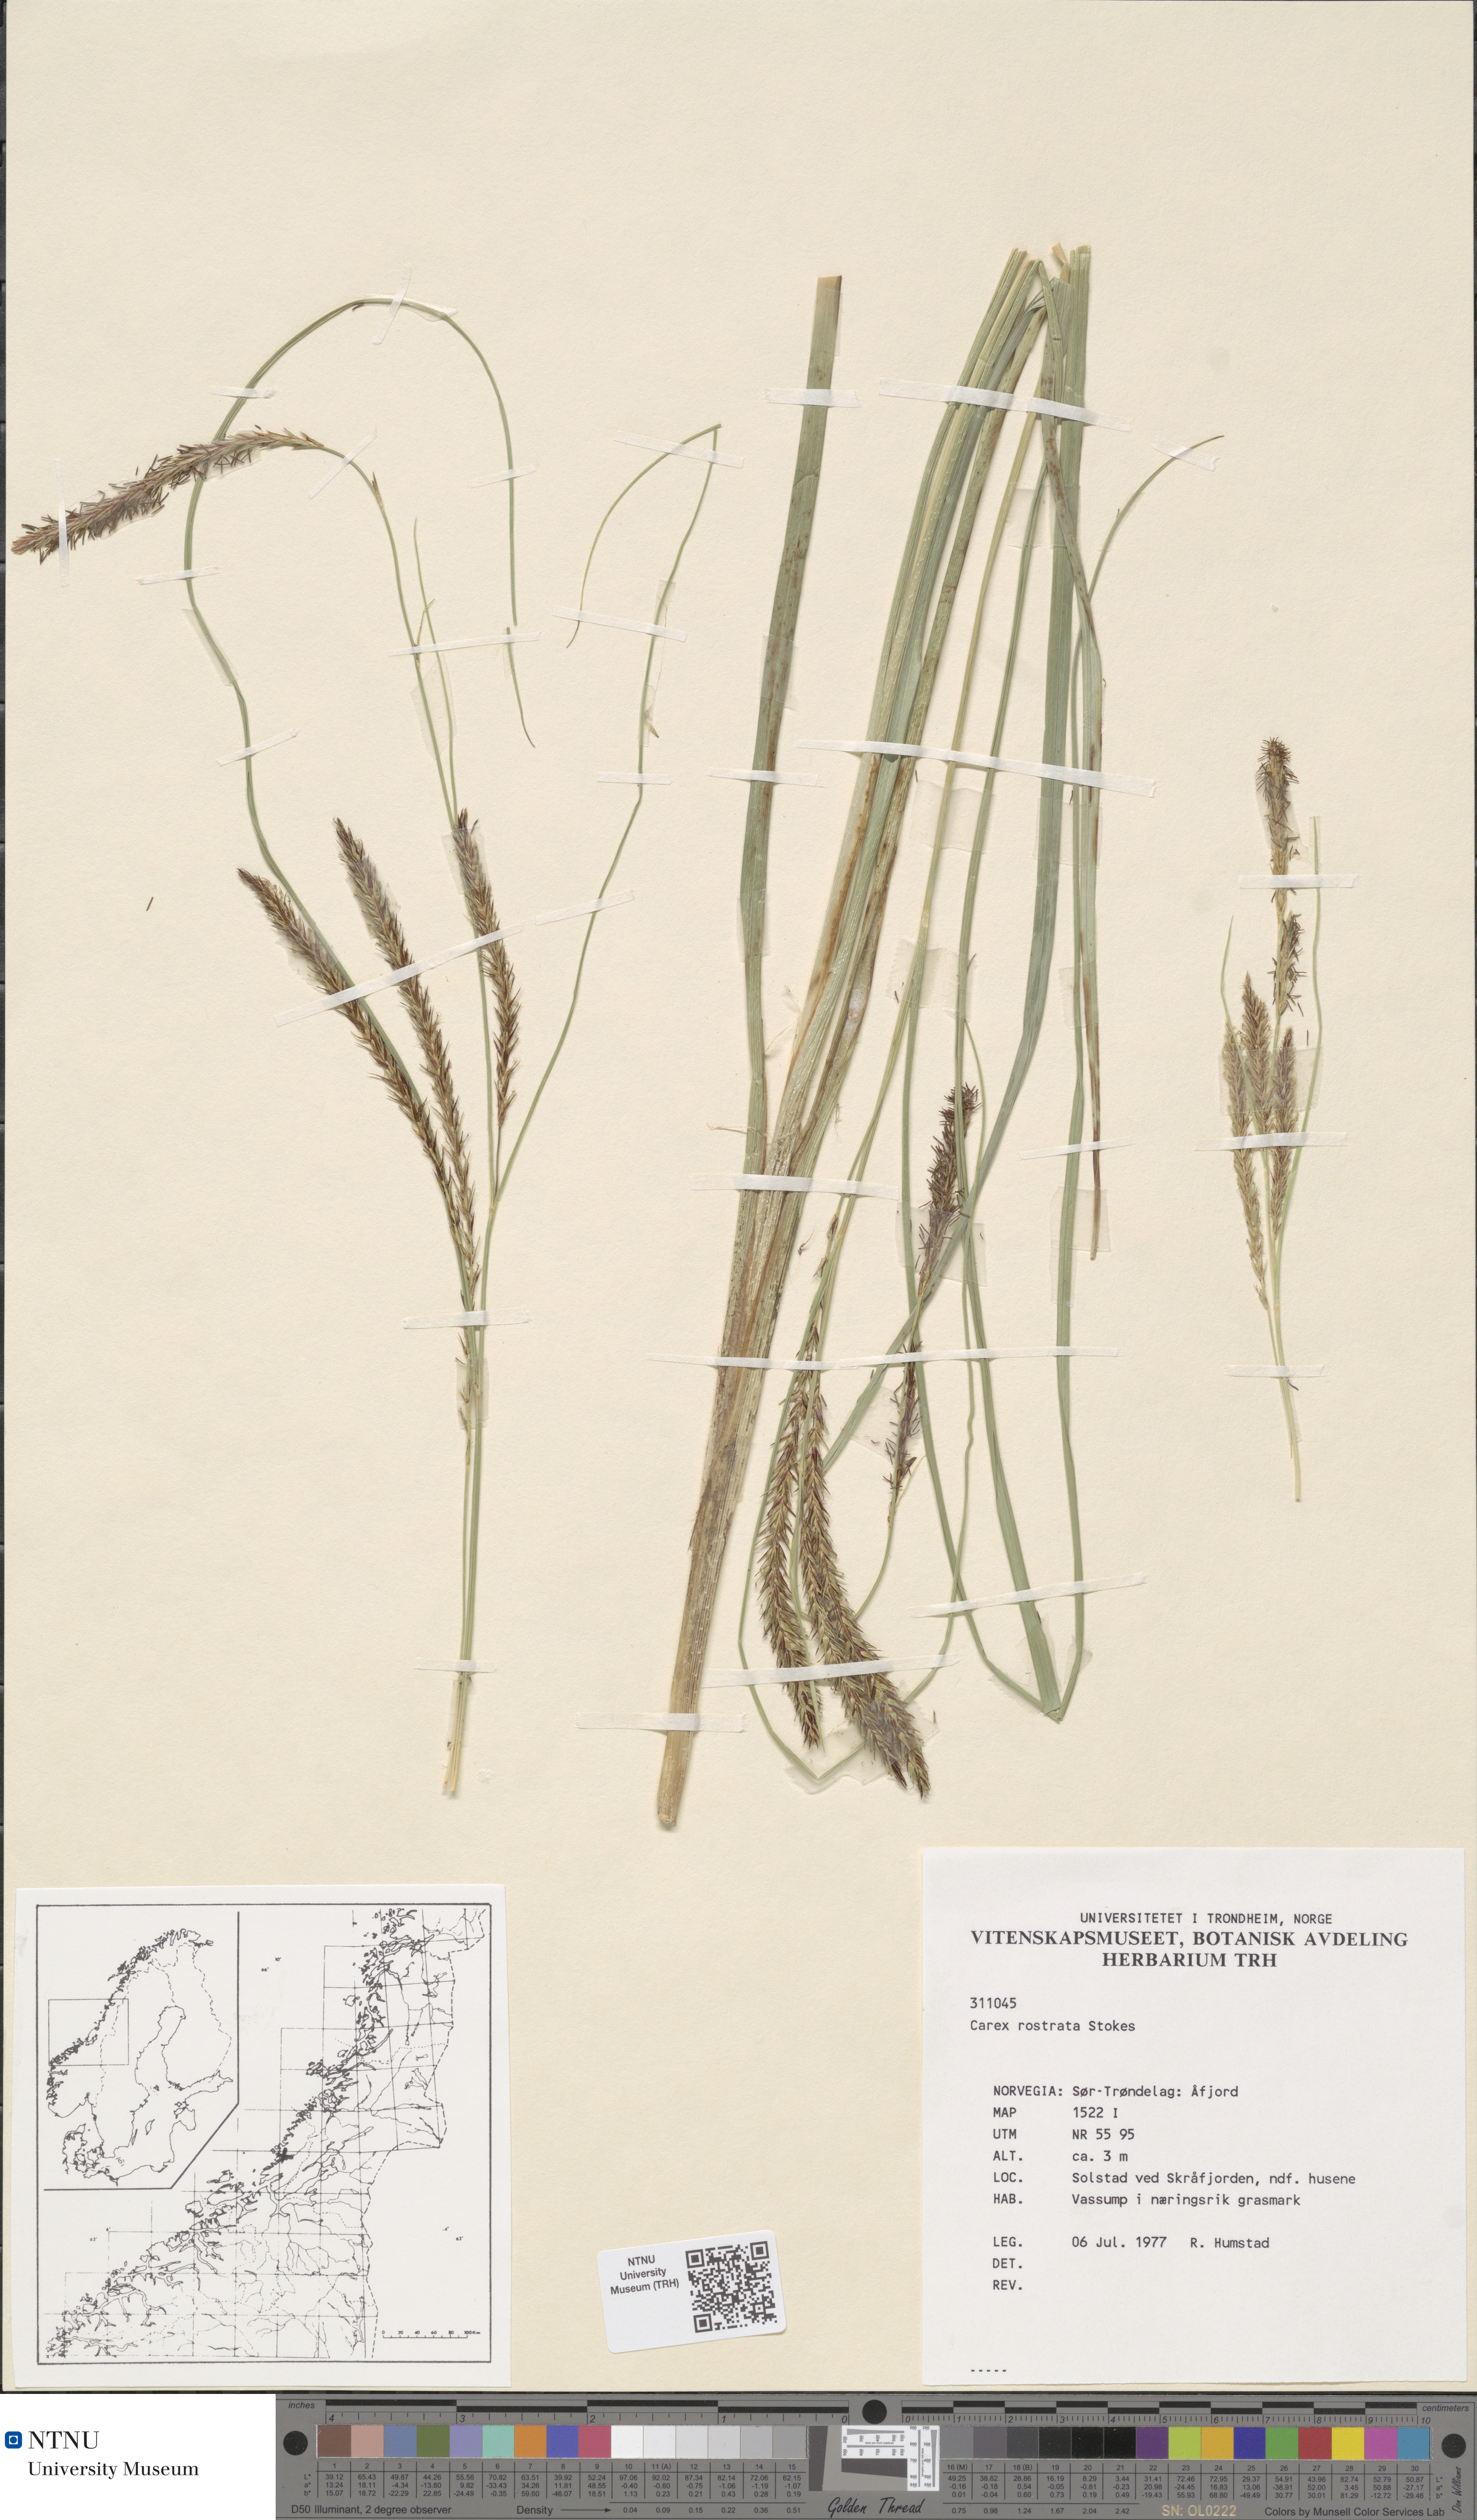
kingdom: Plantae
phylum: Tracheophyta
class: Liliopsida
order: Poales
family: Cyperaceae
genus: Carex
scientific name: Carex rostrata
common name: Bottle sedge
